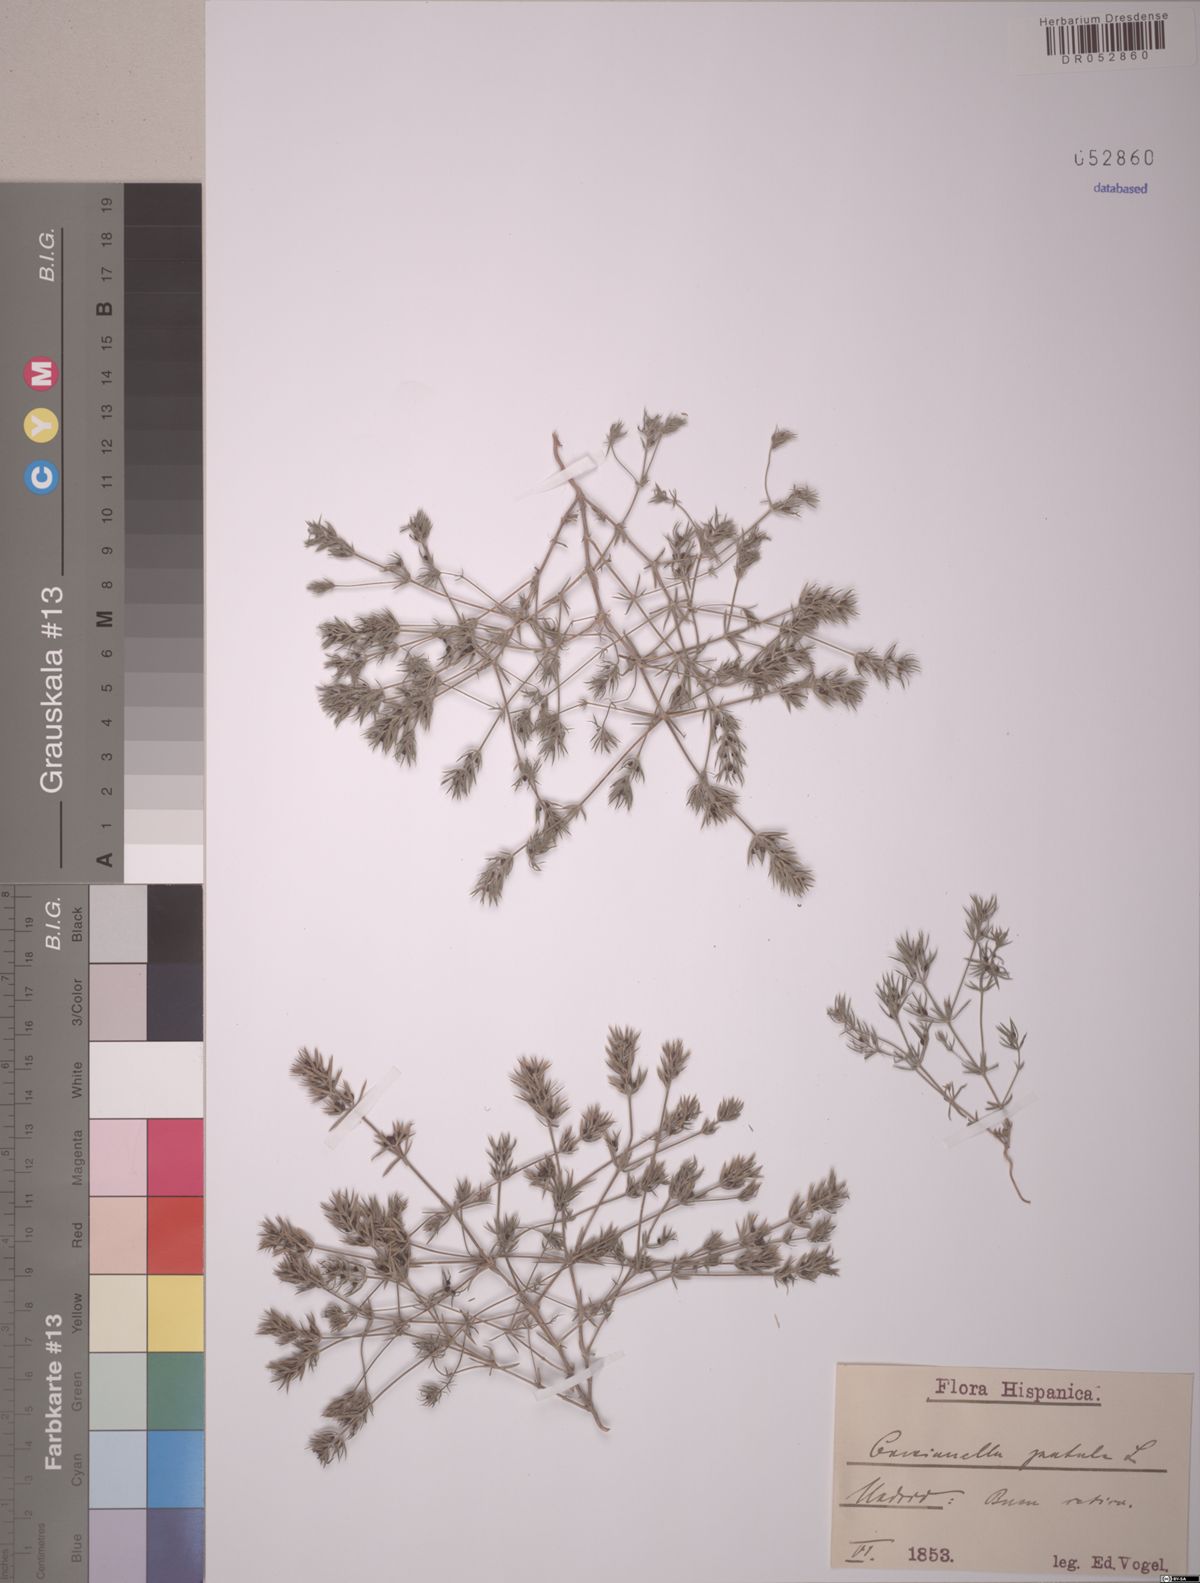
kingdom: Plantae
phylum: Tracheophyta
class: Magnoliopsida
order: Gentianales
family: Rubiaceae
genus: Crucianella
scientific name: Crucianella patula
